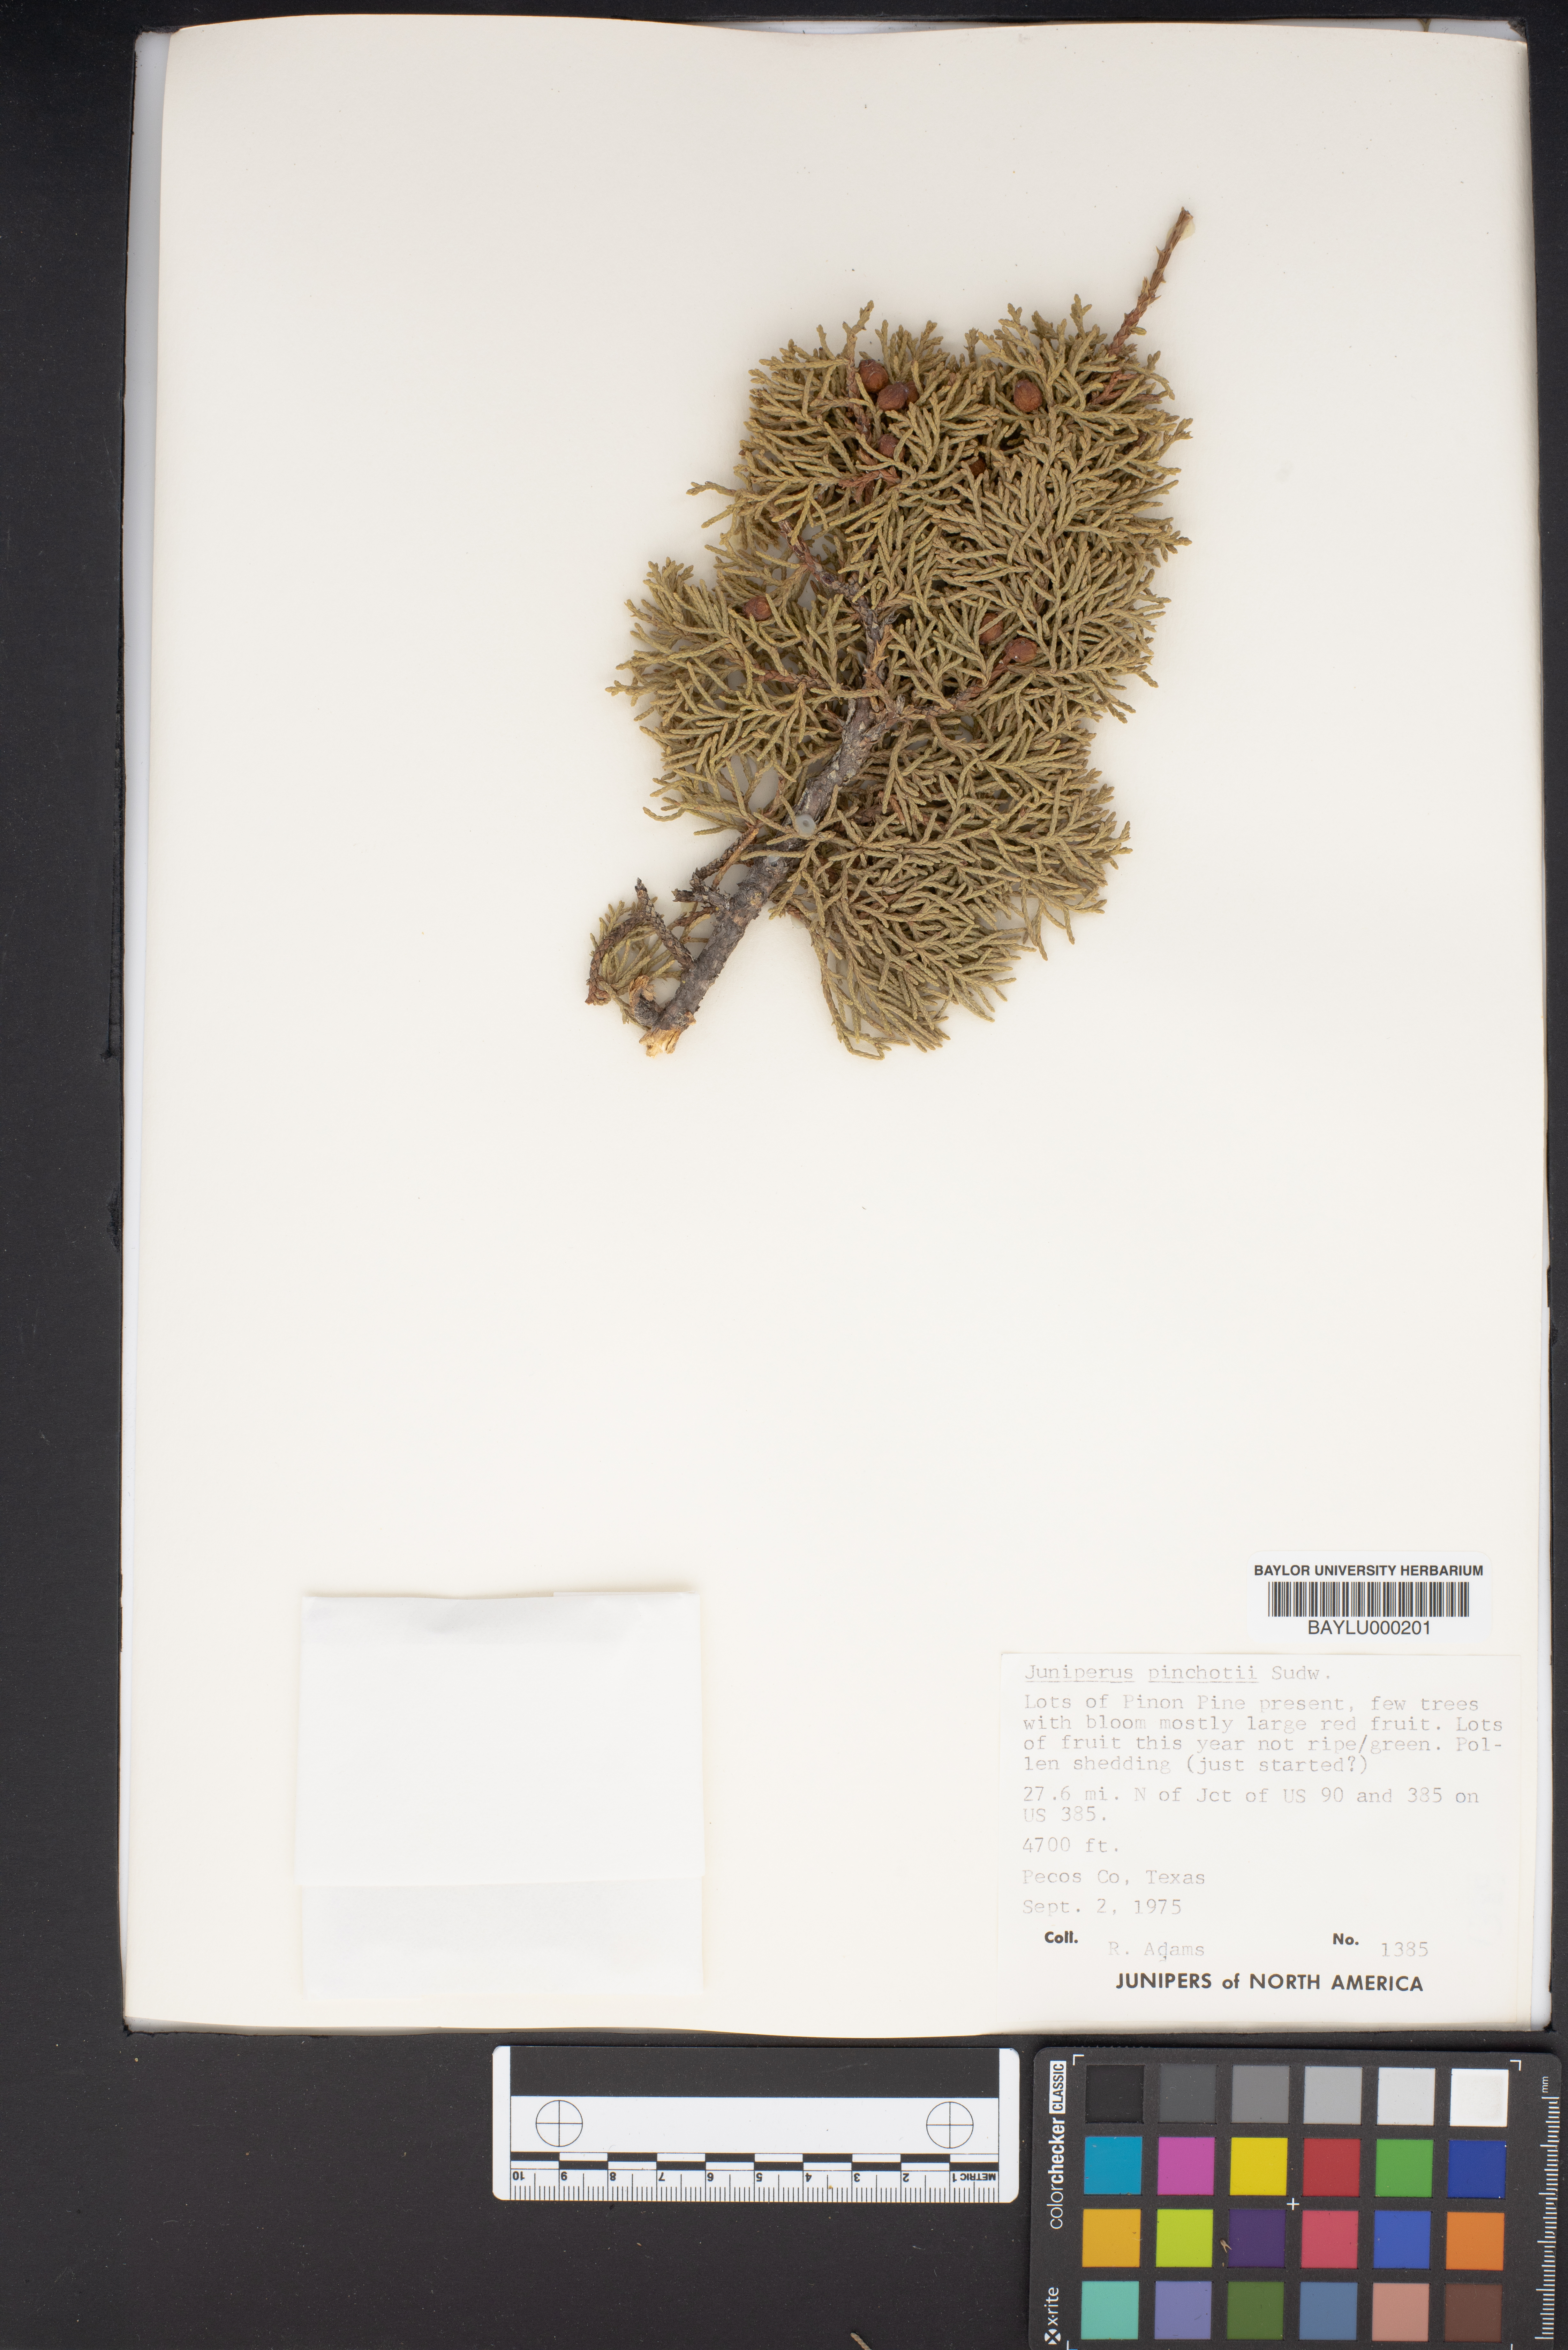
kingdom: Plantae
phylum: Tracheophyta
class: Pinopsida
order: Pinales
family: Cupressaceae
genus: Juniperus
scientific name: Juniperus pinchotii
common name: Pinchot juniper
